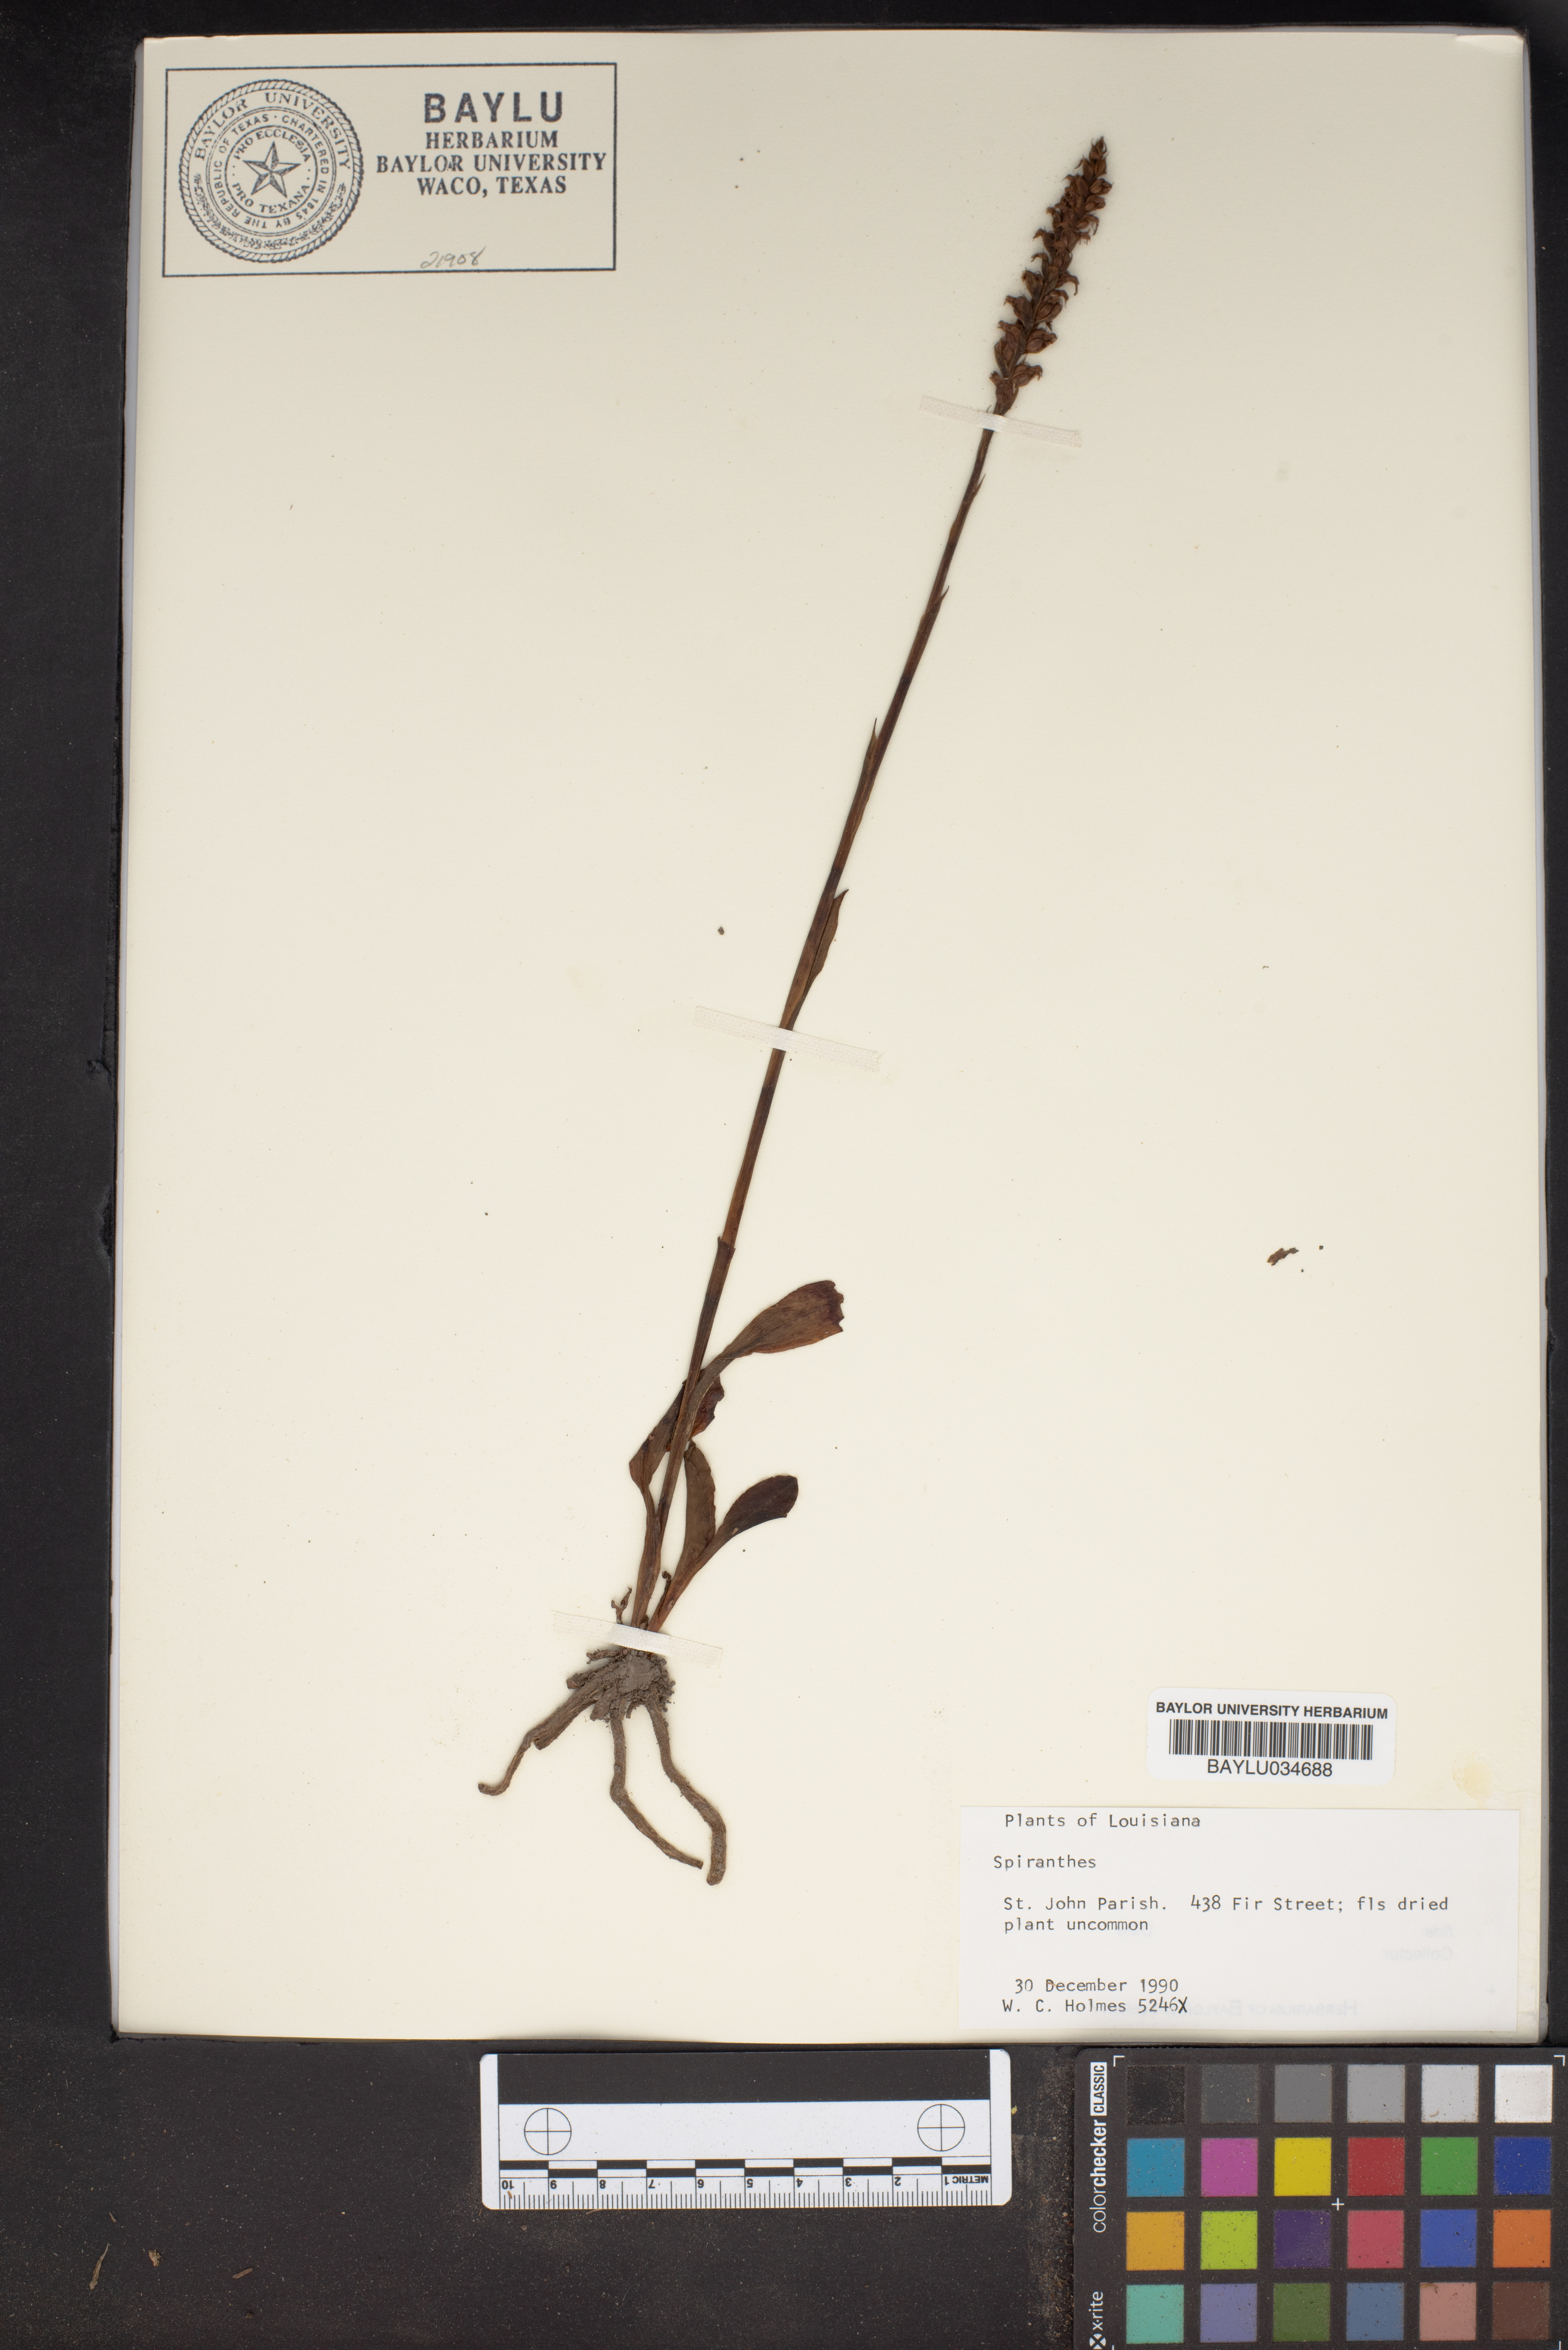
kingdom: Plantae
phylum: Tracheophyta
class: Liliopsida
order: Asparagales
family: Orchidaceae
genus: Spiranthes
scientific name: Spiranthes
